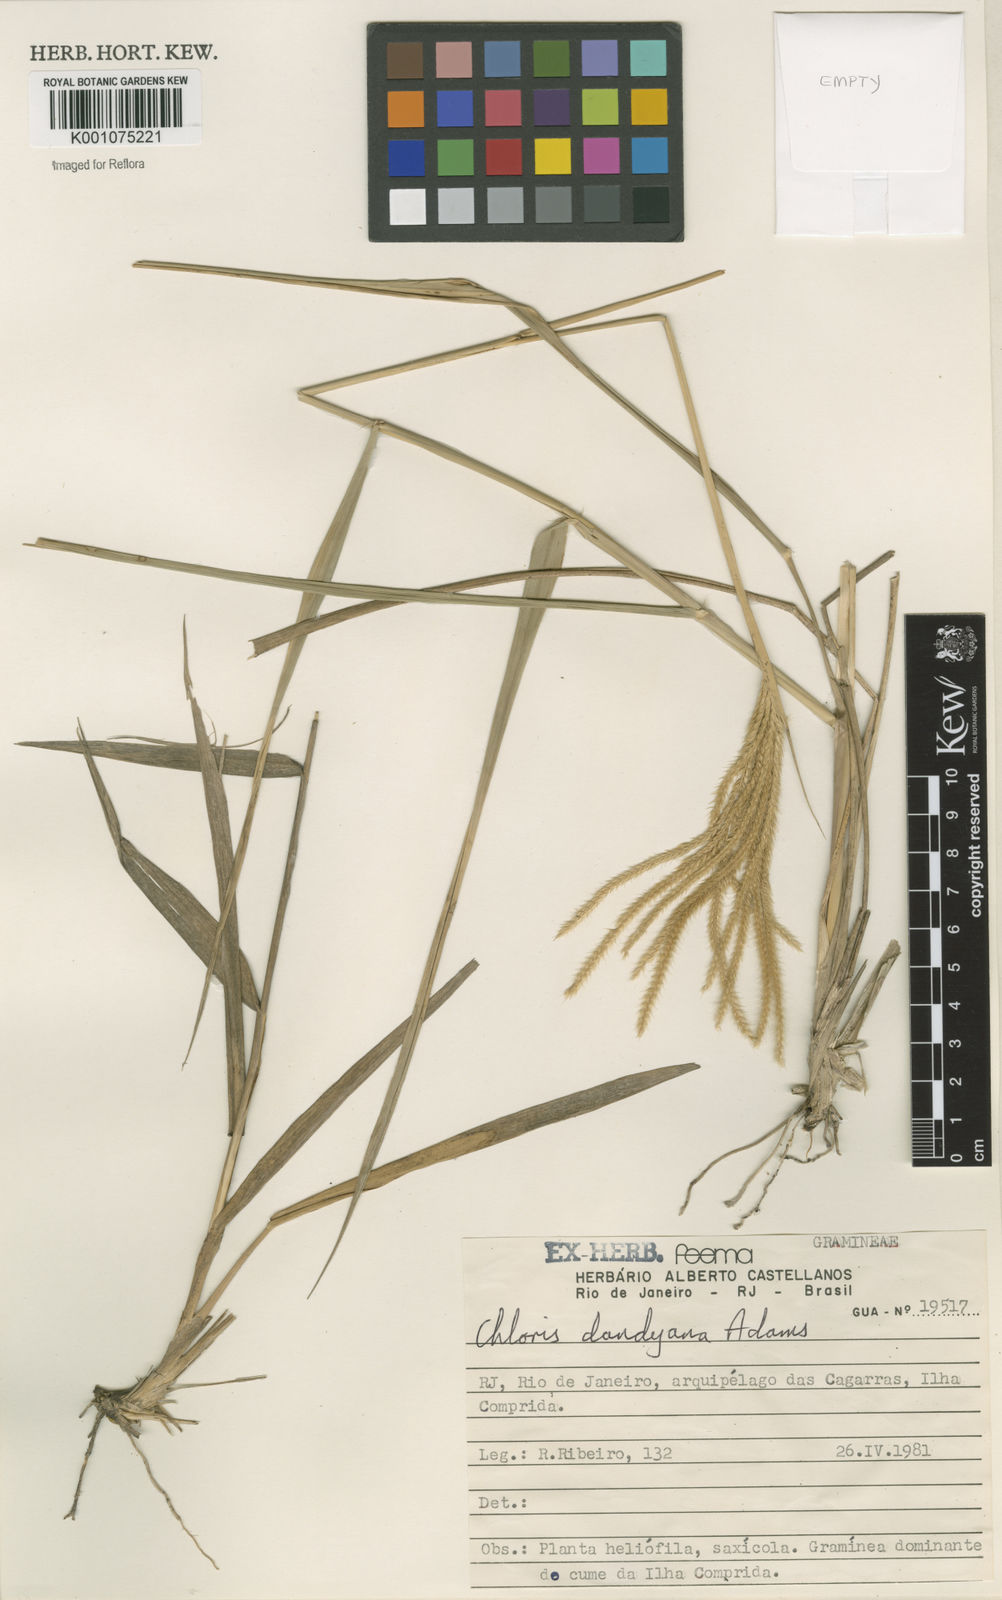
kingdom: Plantae
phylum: Tracheophyta
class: Liliopsida
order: Poales
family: Poaceae
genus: Stapfochloa
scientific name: Stapfochloa elata
